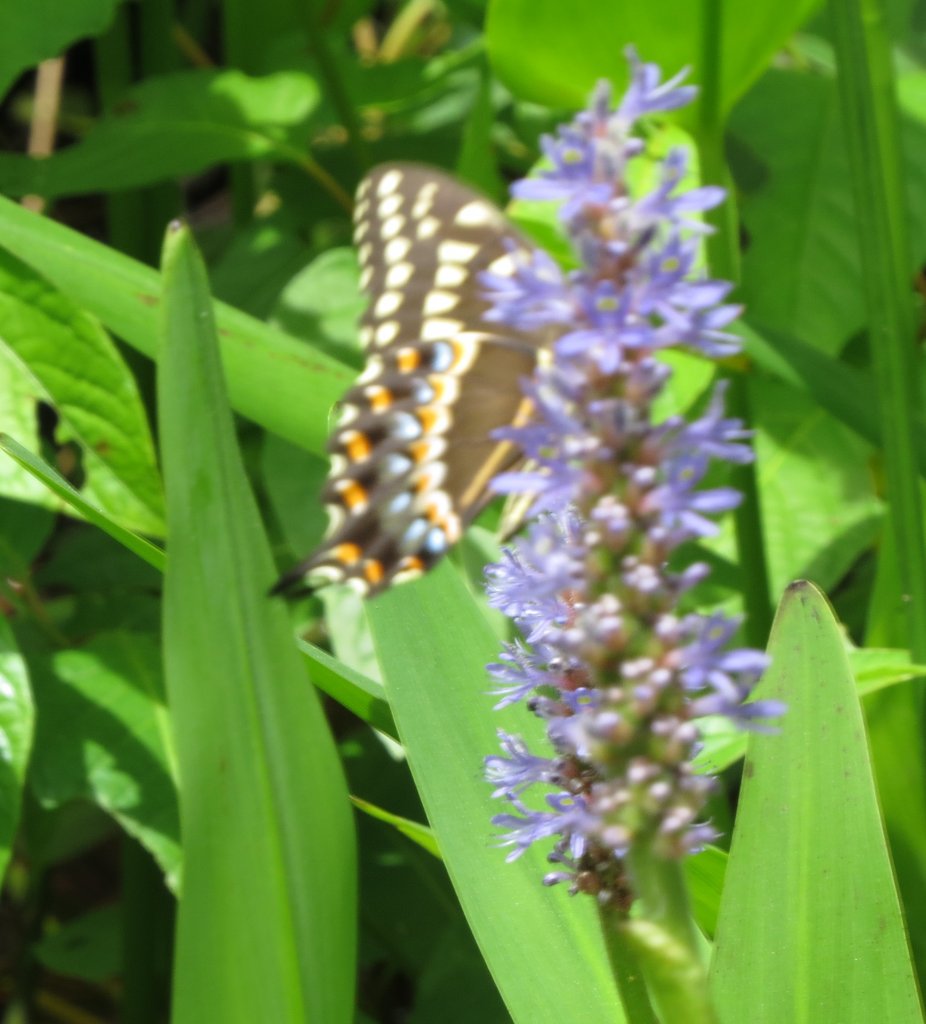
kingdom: Animalia
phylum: Arthropoda
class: Insecta
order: Lepidoptera
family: Papilionidae
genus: Pterourus
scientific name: Pterourus palamedes
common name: Palamedes Swallowtail
